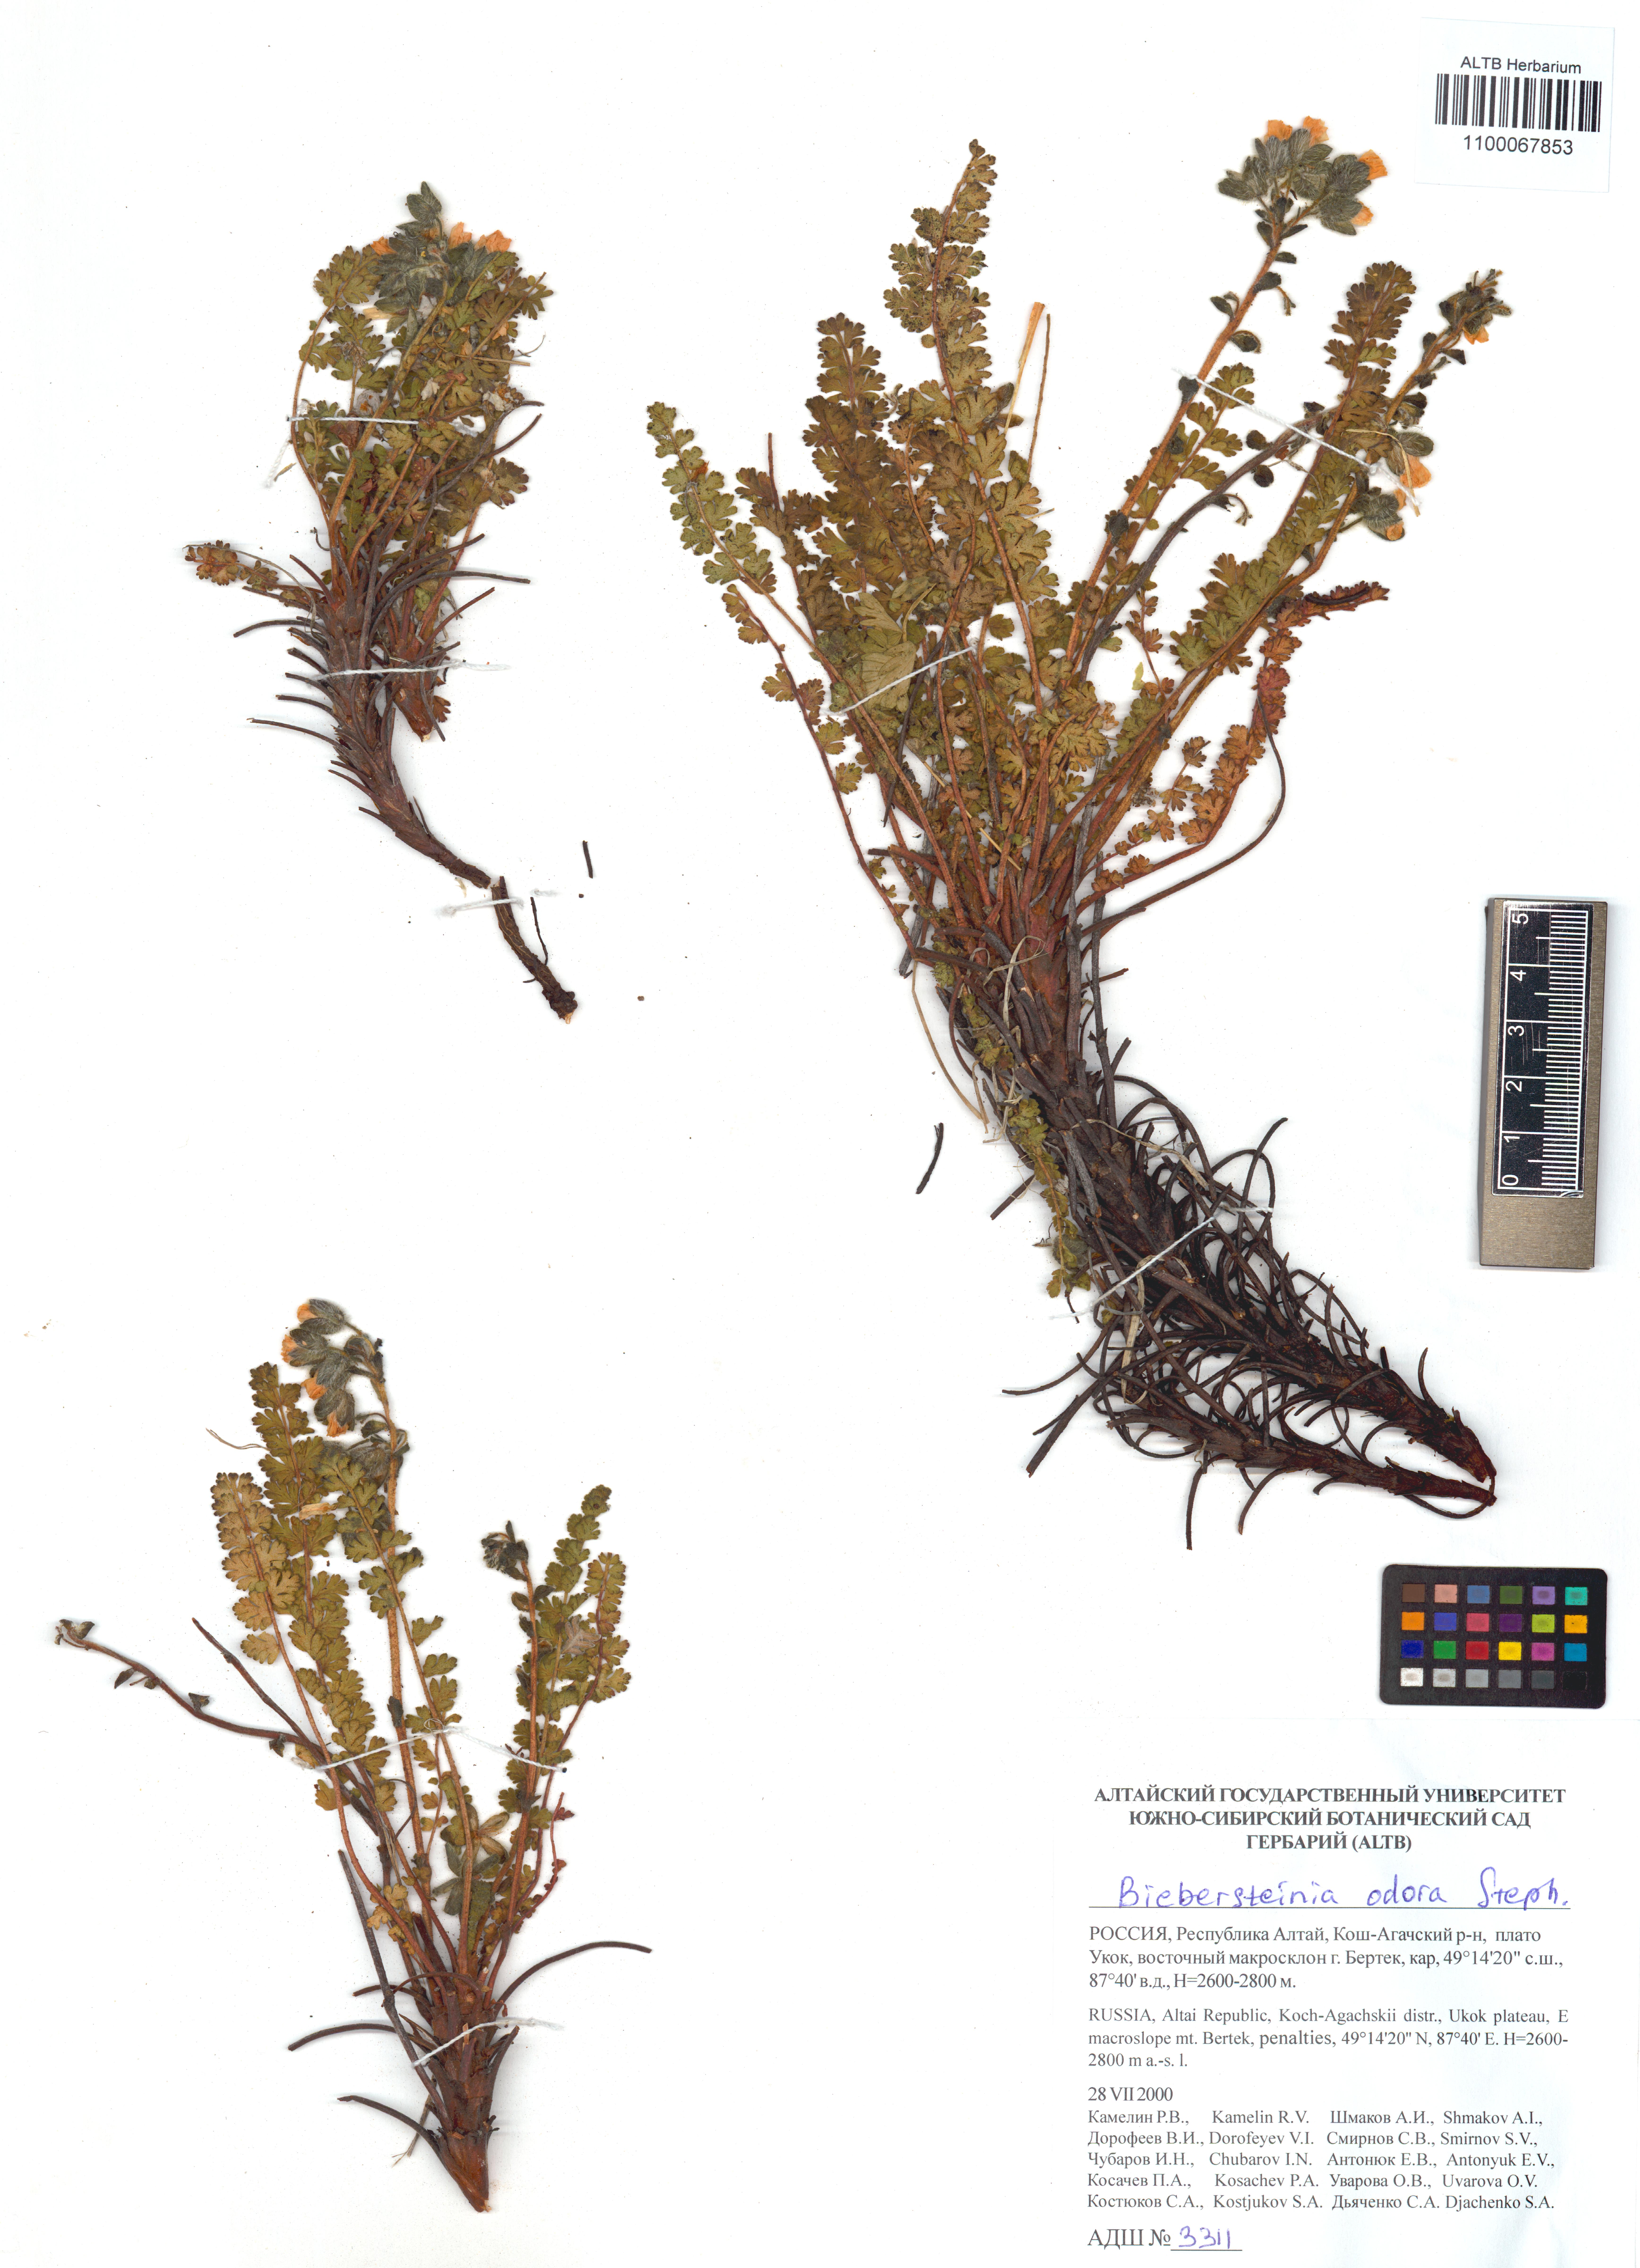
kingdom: Plantae
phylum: Tracheophyta
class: Magnoliopsida
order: Sapindales
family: Biebersteiniaceae
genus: Biebersteinia
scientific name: Biebersteinia odora
